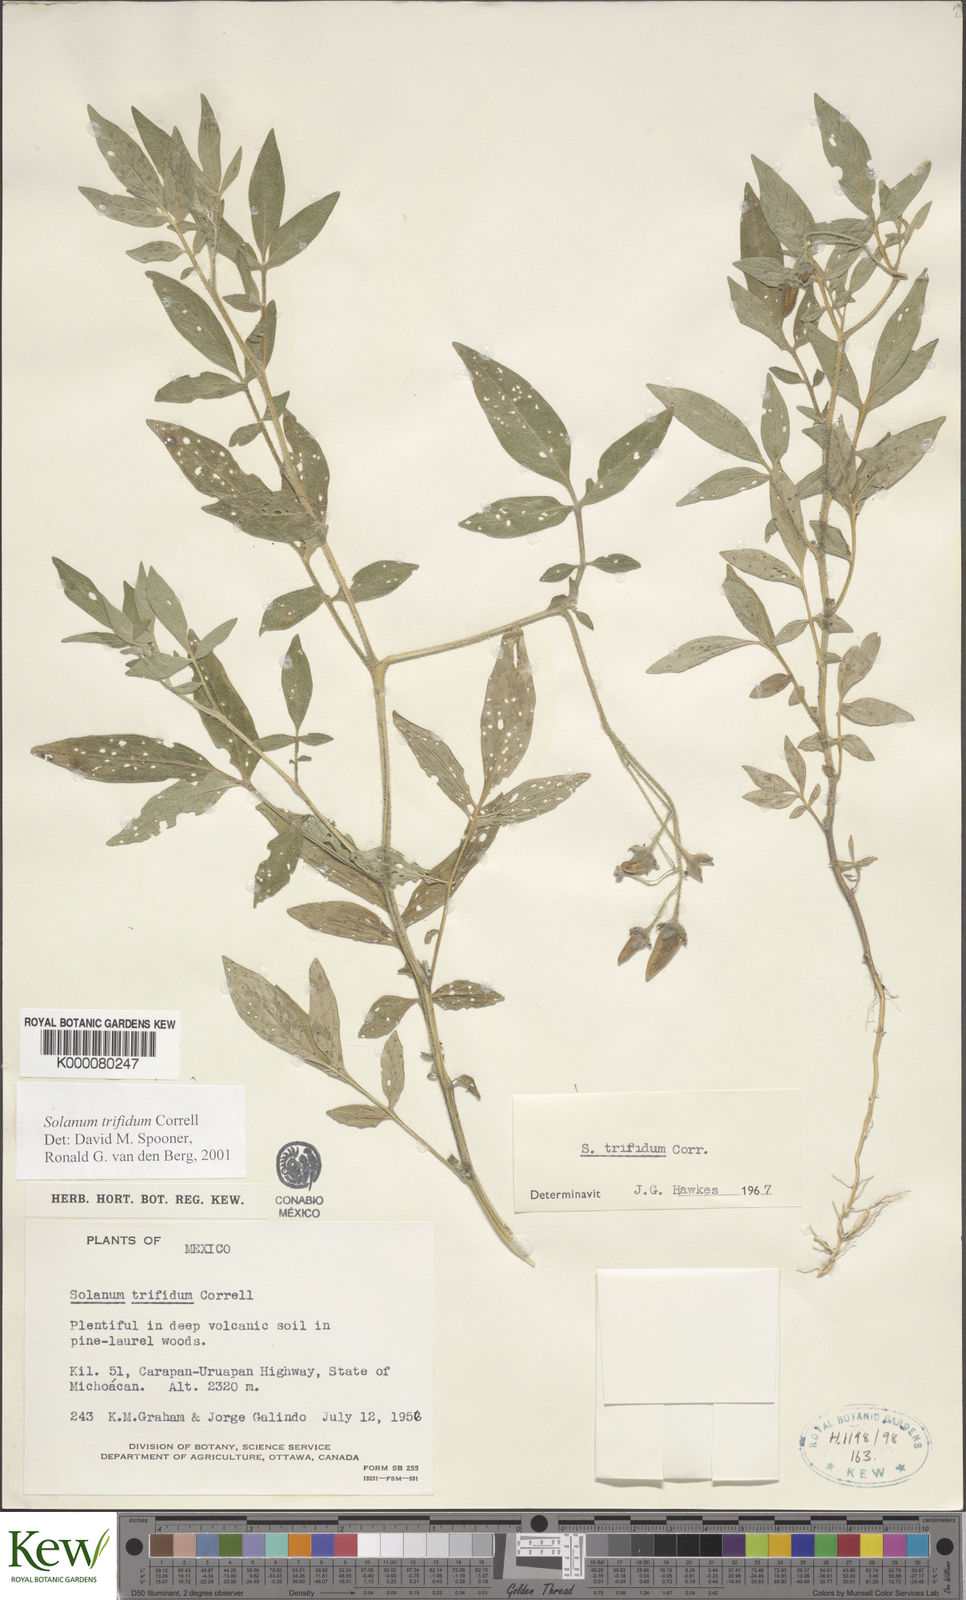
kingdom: Plantae
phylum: Tracheophyta
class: Magnoliopsida
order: Solanales
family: Solanaceae
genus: Solanum
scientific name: Solanum trifidum
